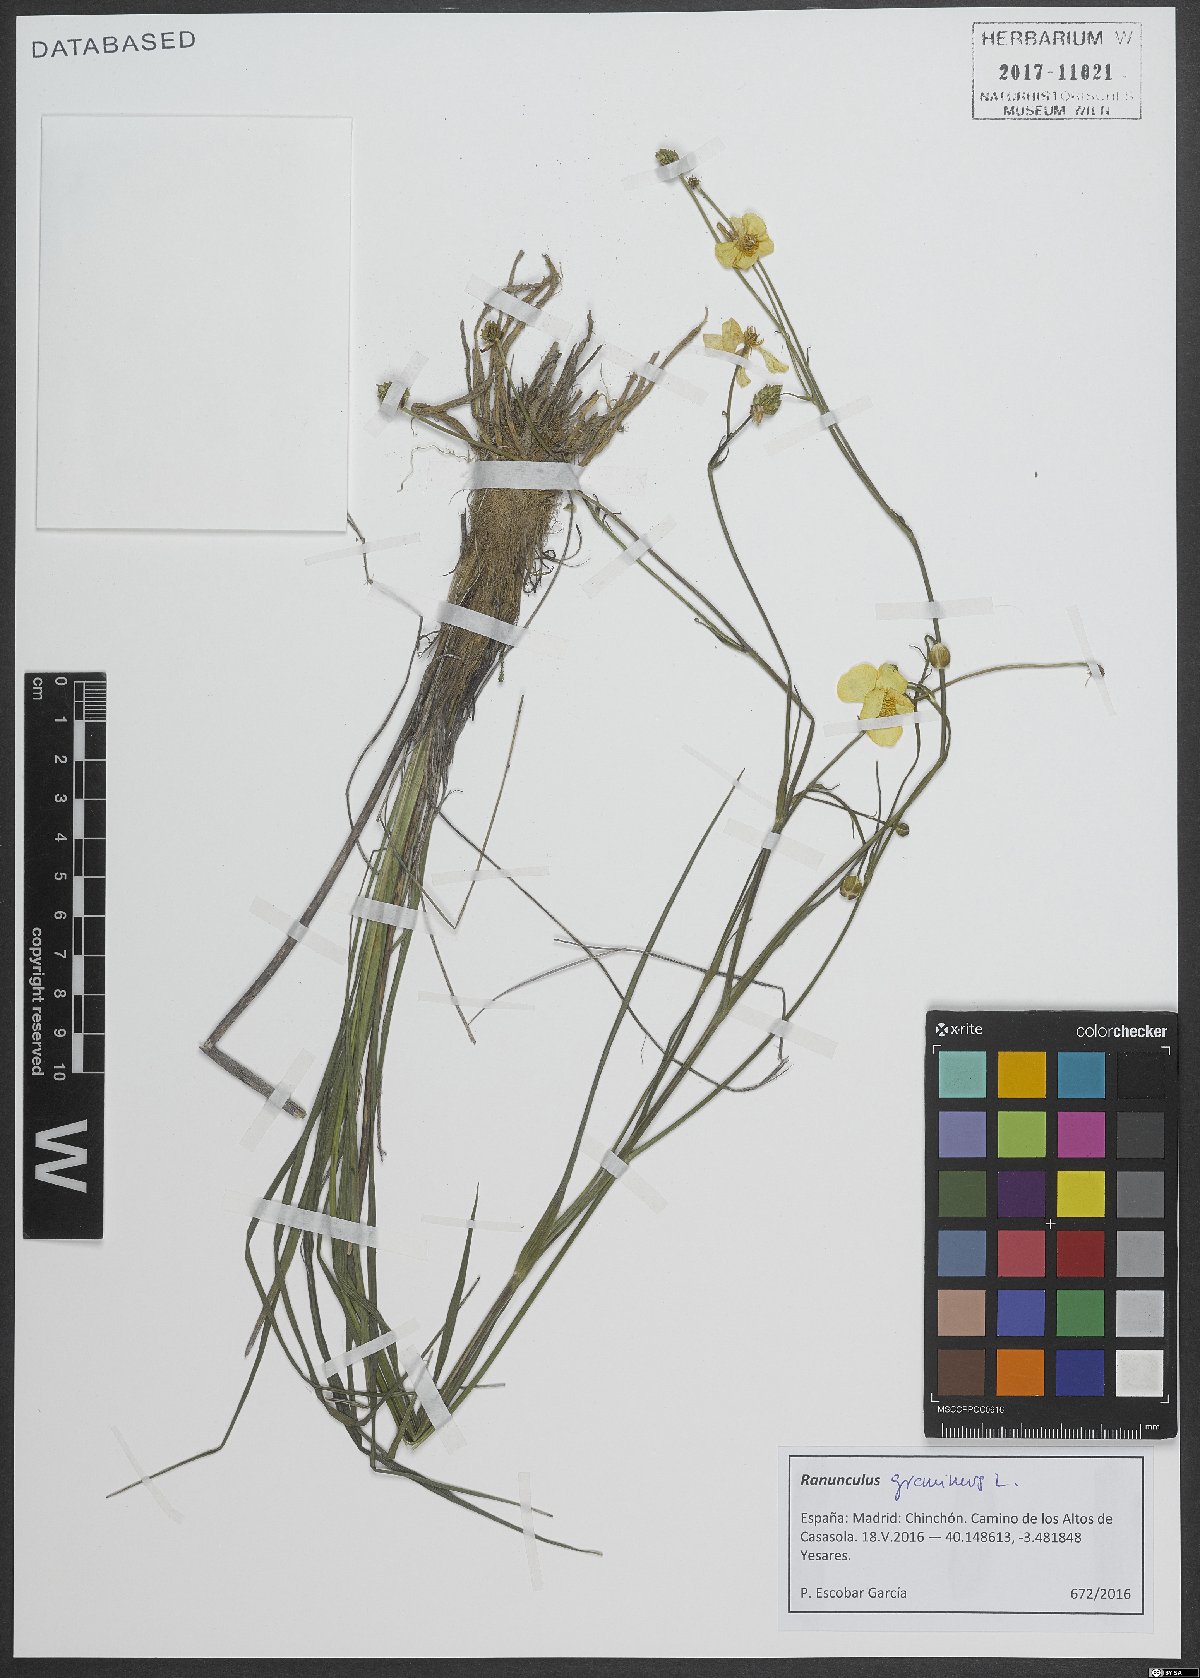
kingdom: Plantae
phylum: Tracheophyta
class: Magnoliopsida
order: Ranunculales
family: Ranunculaceae
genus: Ranunculus
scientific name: Ranunculus gramineus
